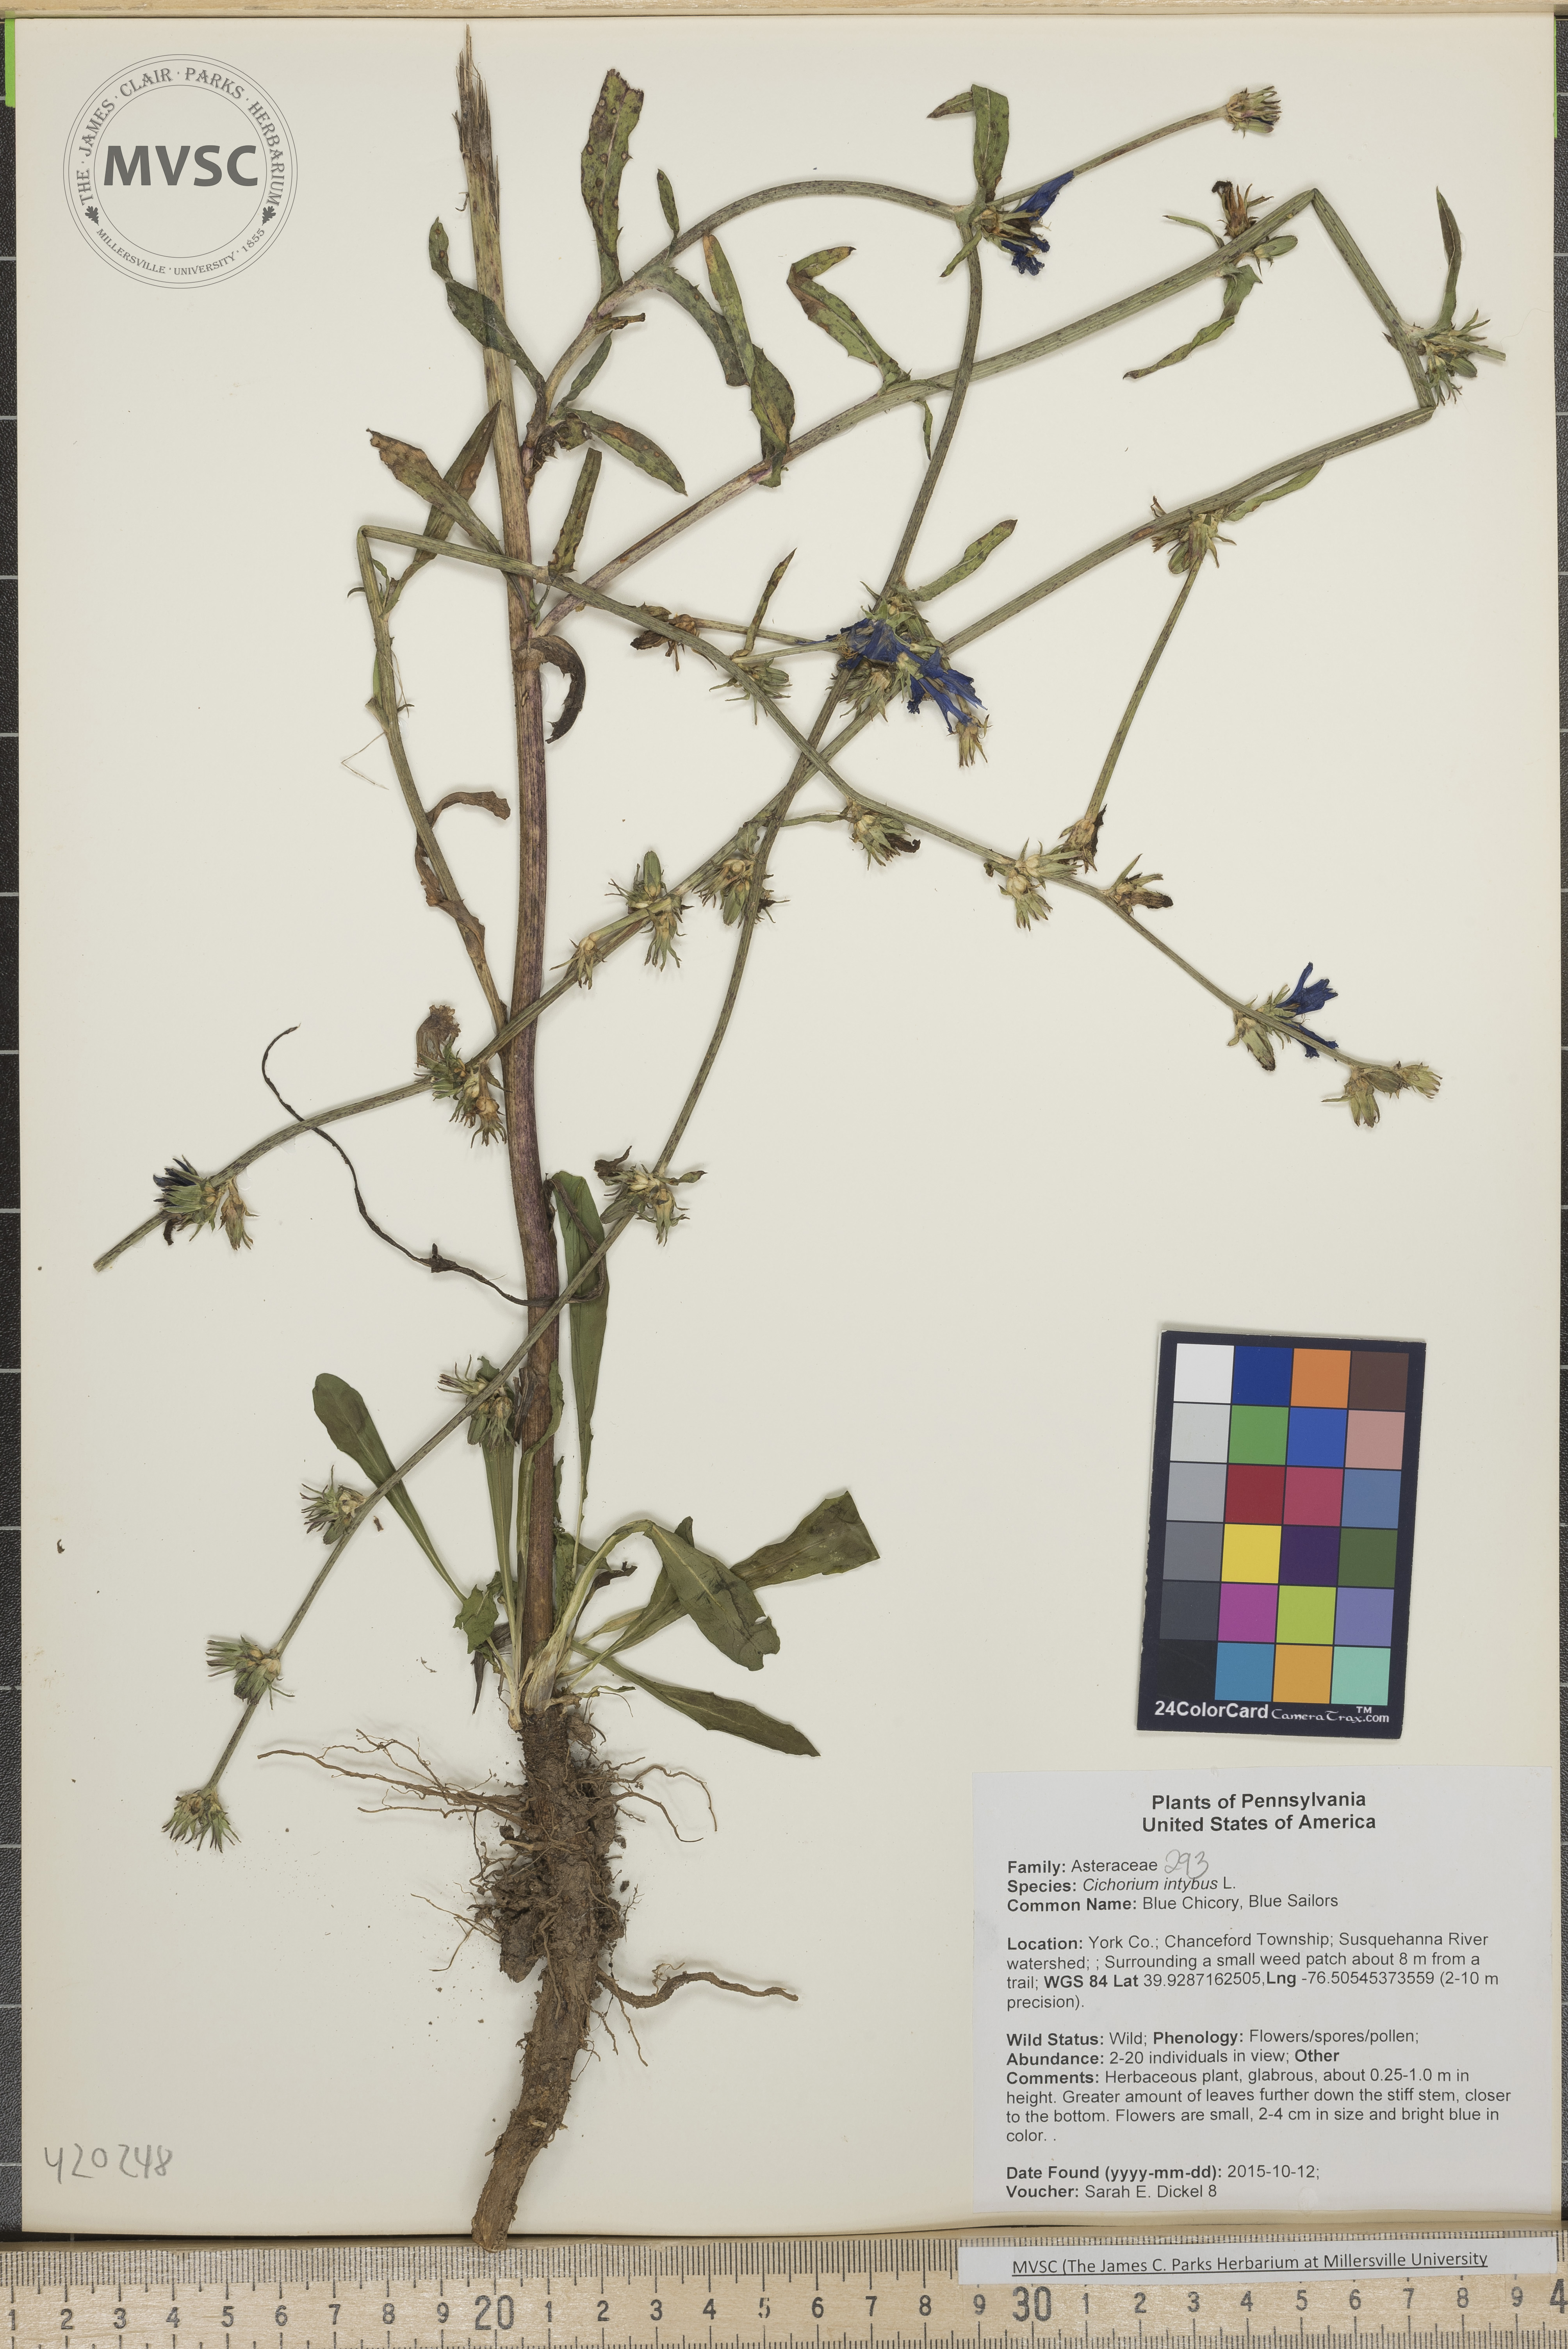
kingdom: Plantae
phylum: Tracheophyta
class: Magnoliopsida
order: Asterales
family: Asteraceae
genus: Cichorium
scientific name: Cichorium intybus
